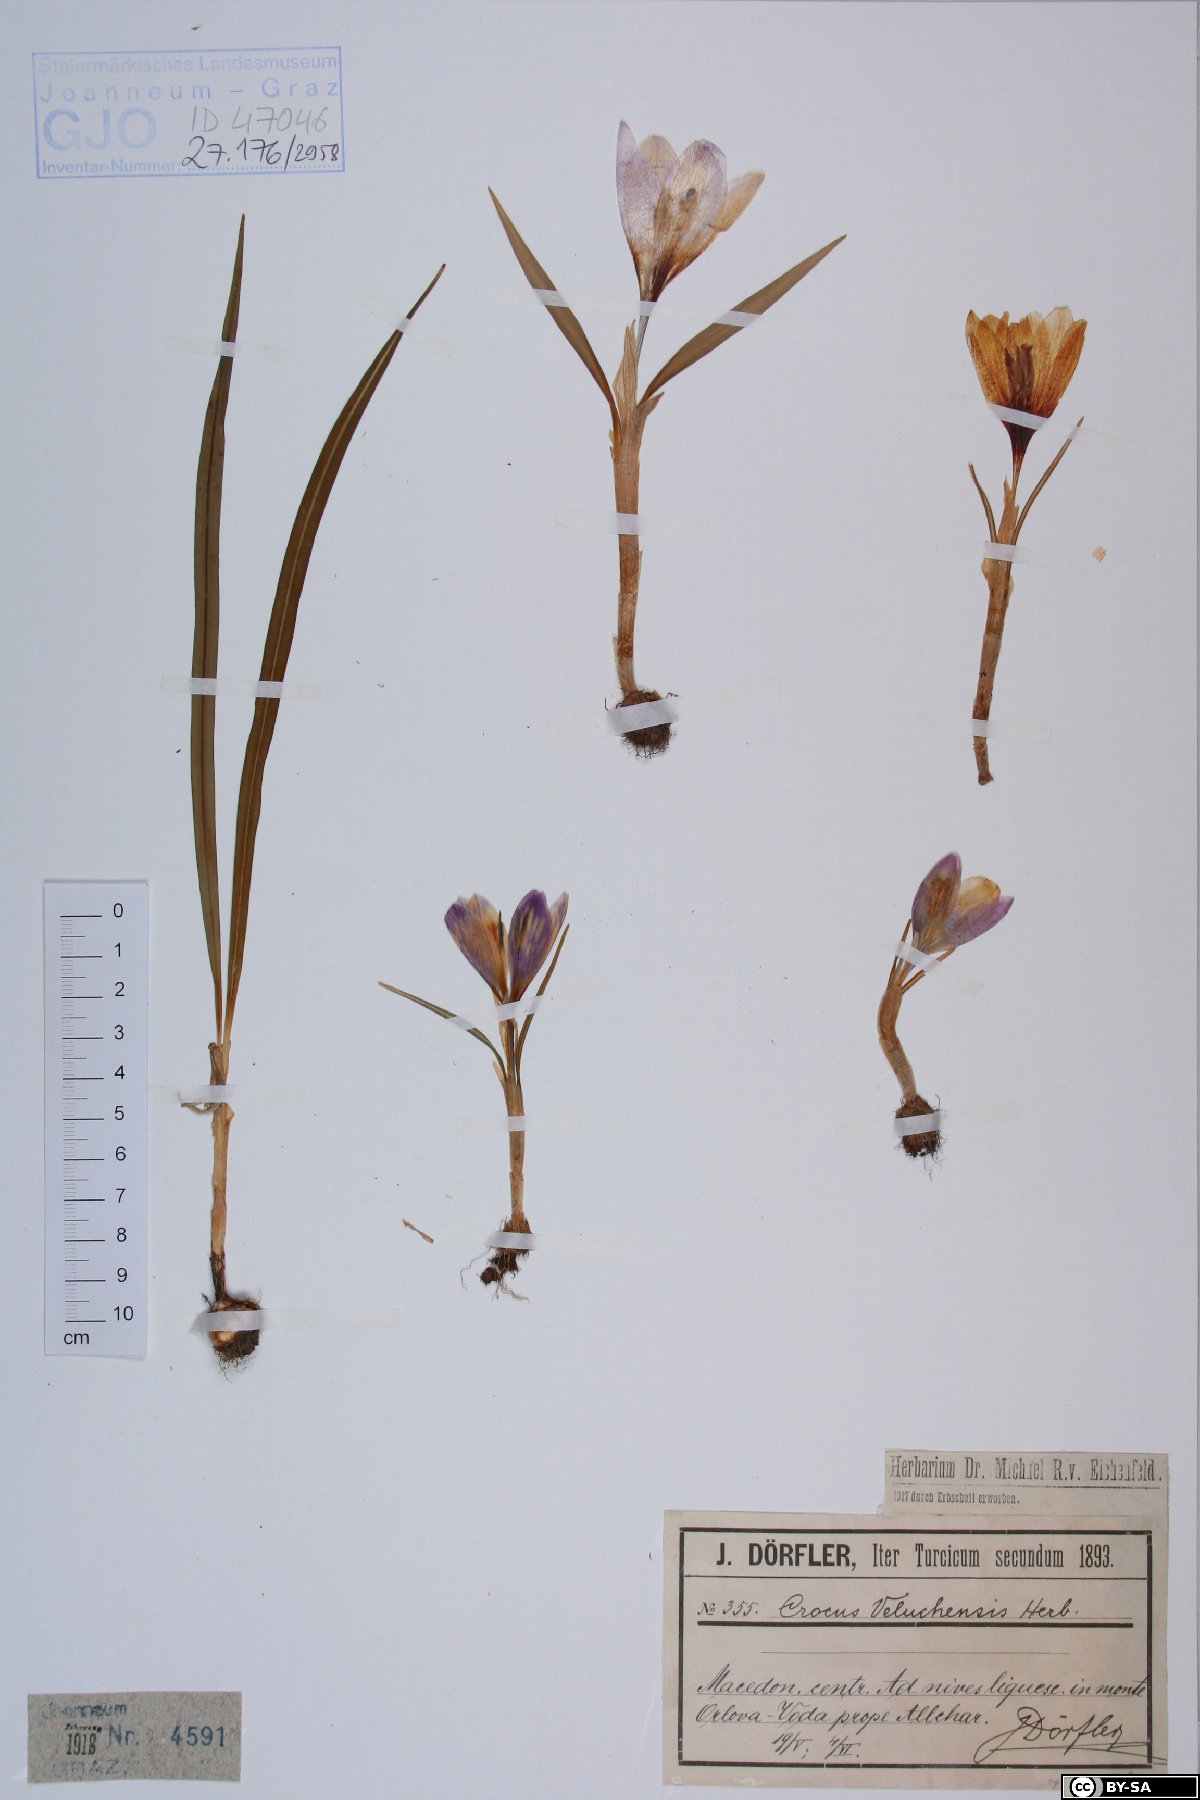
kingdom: Plantae
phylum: Tracheophyta
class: Liliopsida
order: Asparagales
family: Iridaceae
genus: Crocus
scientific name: Crocus veluchensis
